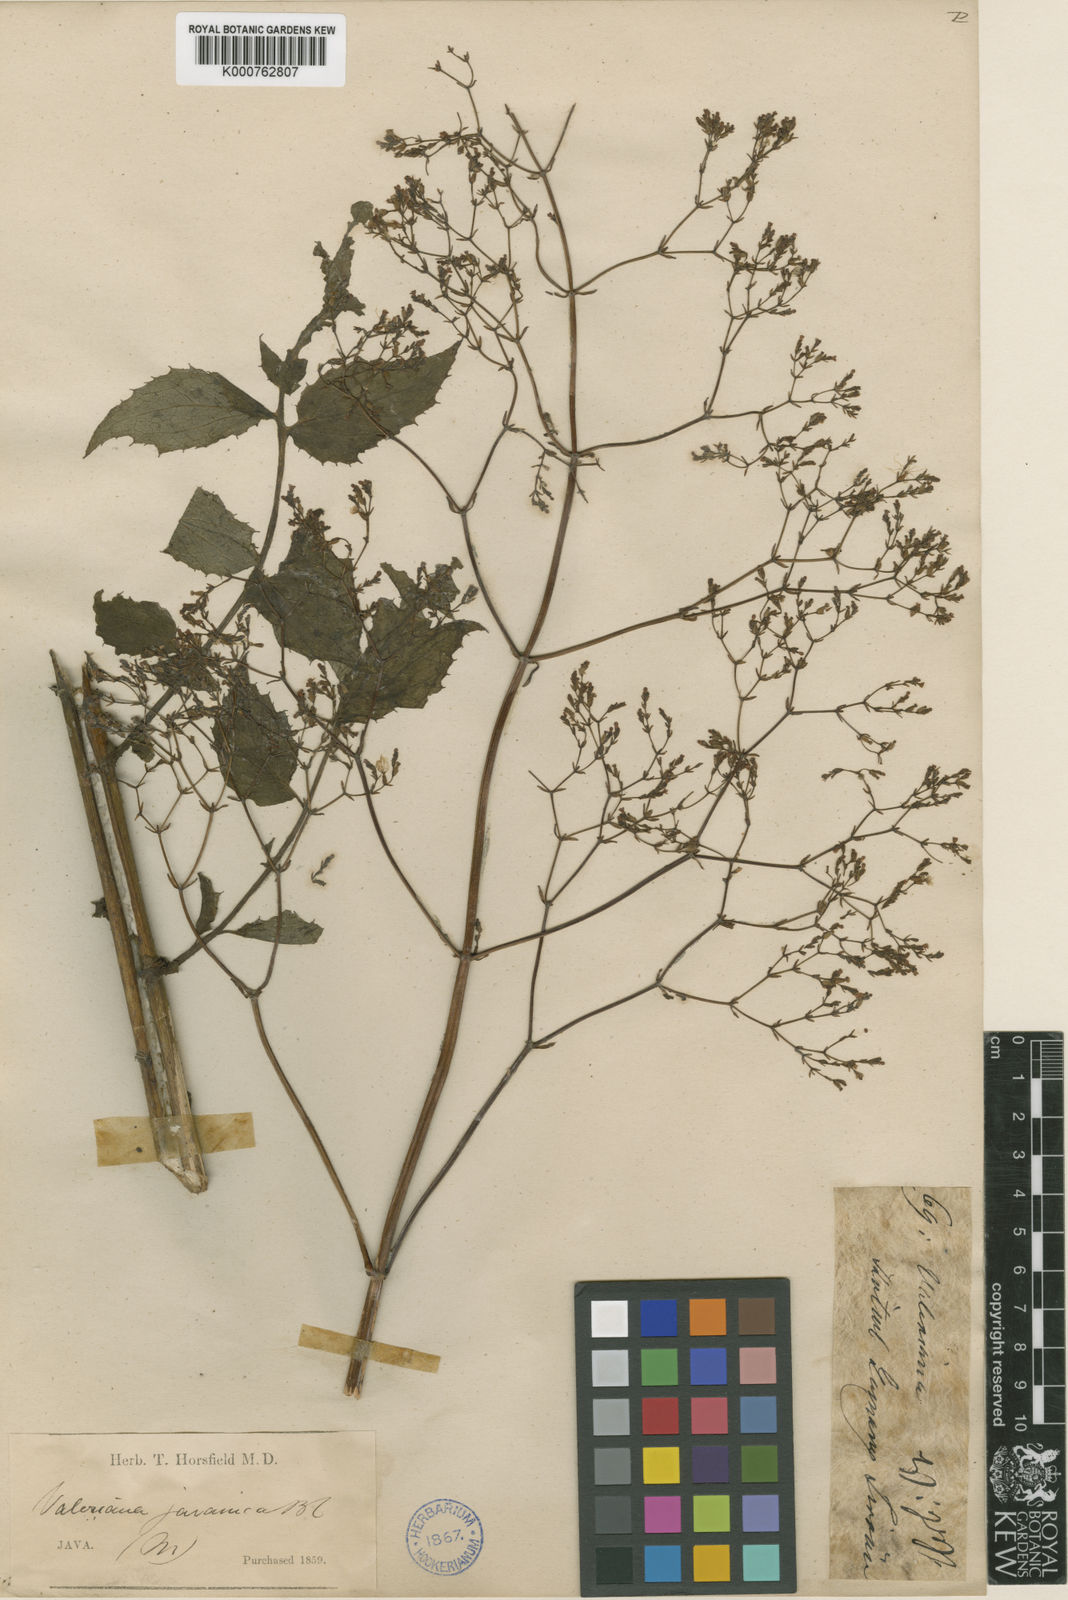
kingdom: Plantae
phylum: Tracheophyta
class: Magnoliopsida
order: Dipsacales
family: Caprifoliaceae
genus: Valeriana
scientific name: Valeriana hardwickei
